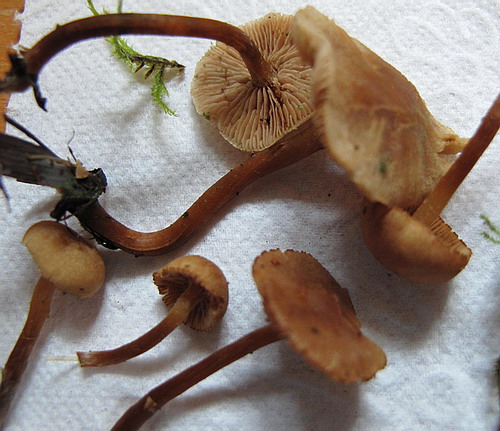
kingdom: Fungi
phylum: Basidiomycota
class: Agaricomycetes
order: Agaricales
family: Hymenogastraceae
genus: Naucoria
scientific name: Naucoria escharioides
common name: lys elle-knaphat
